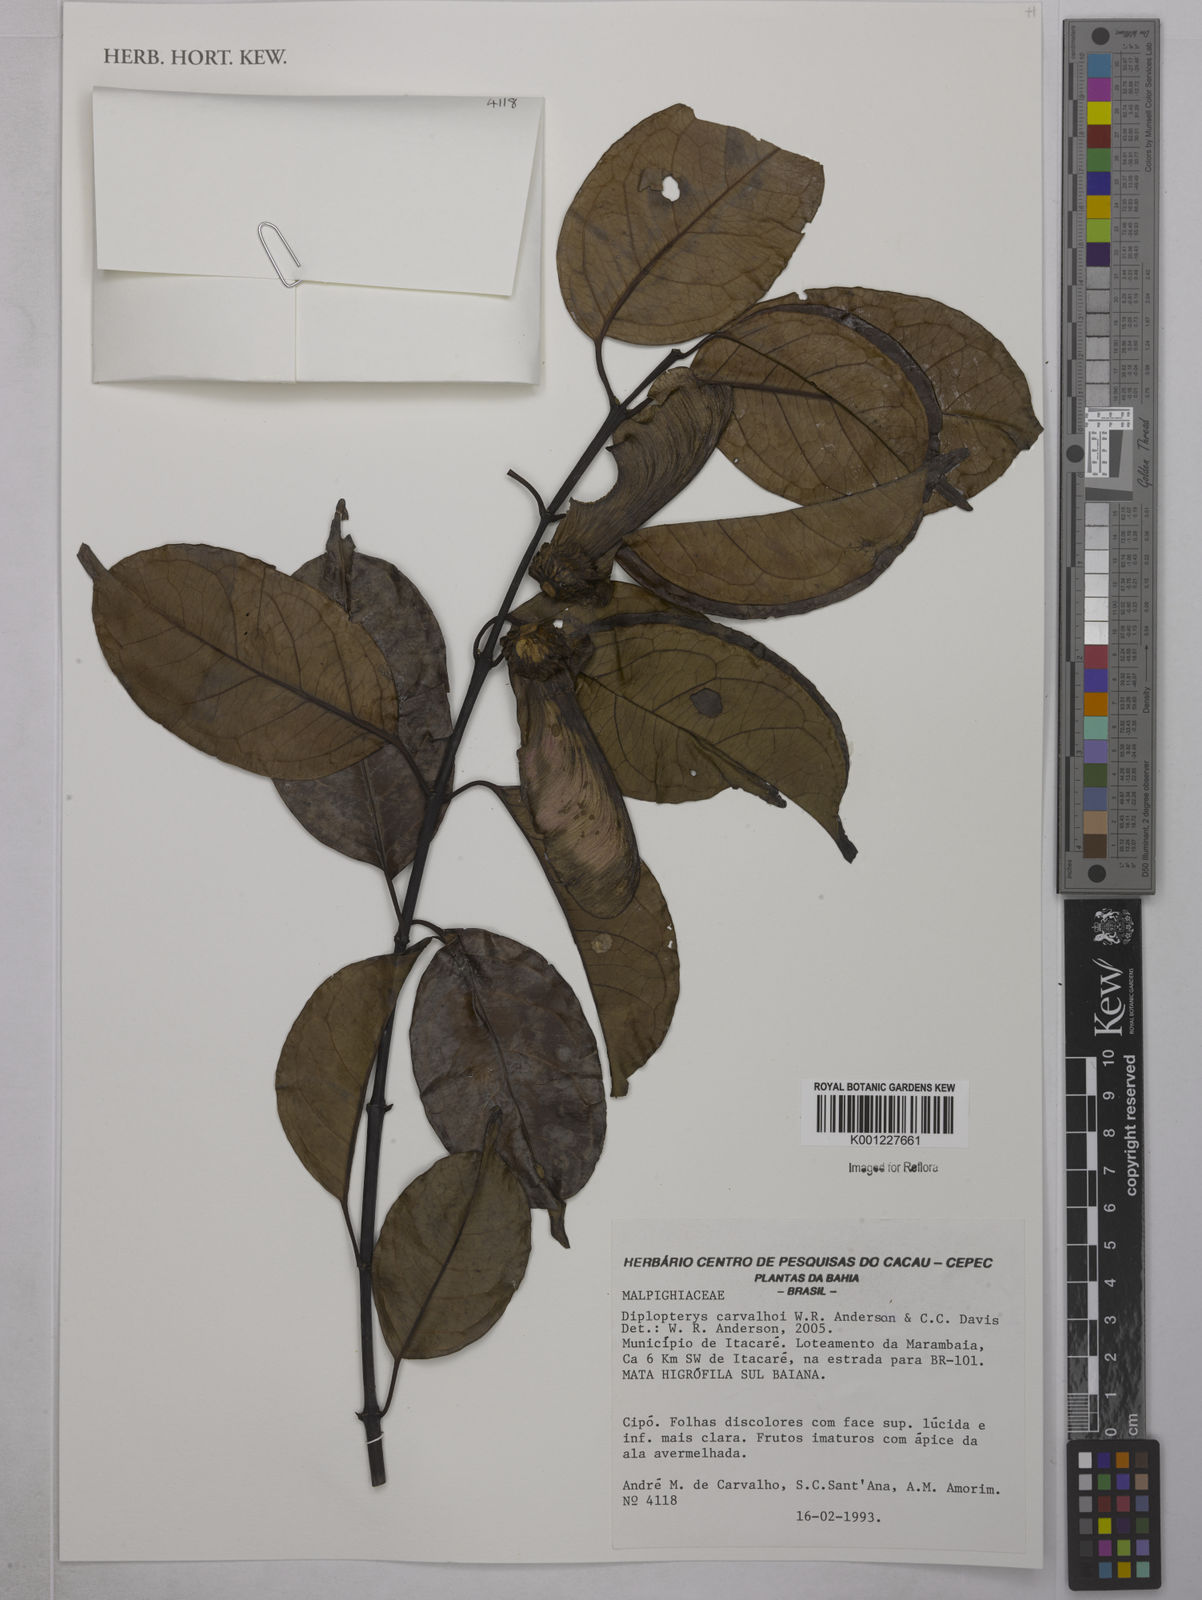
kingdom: Plantae
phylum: Tracheophyta
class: Magnoliopsida
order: Malpighiales
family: Malpighiaceae
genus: Diplopterys
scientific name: Diplopterys carvalhoi
